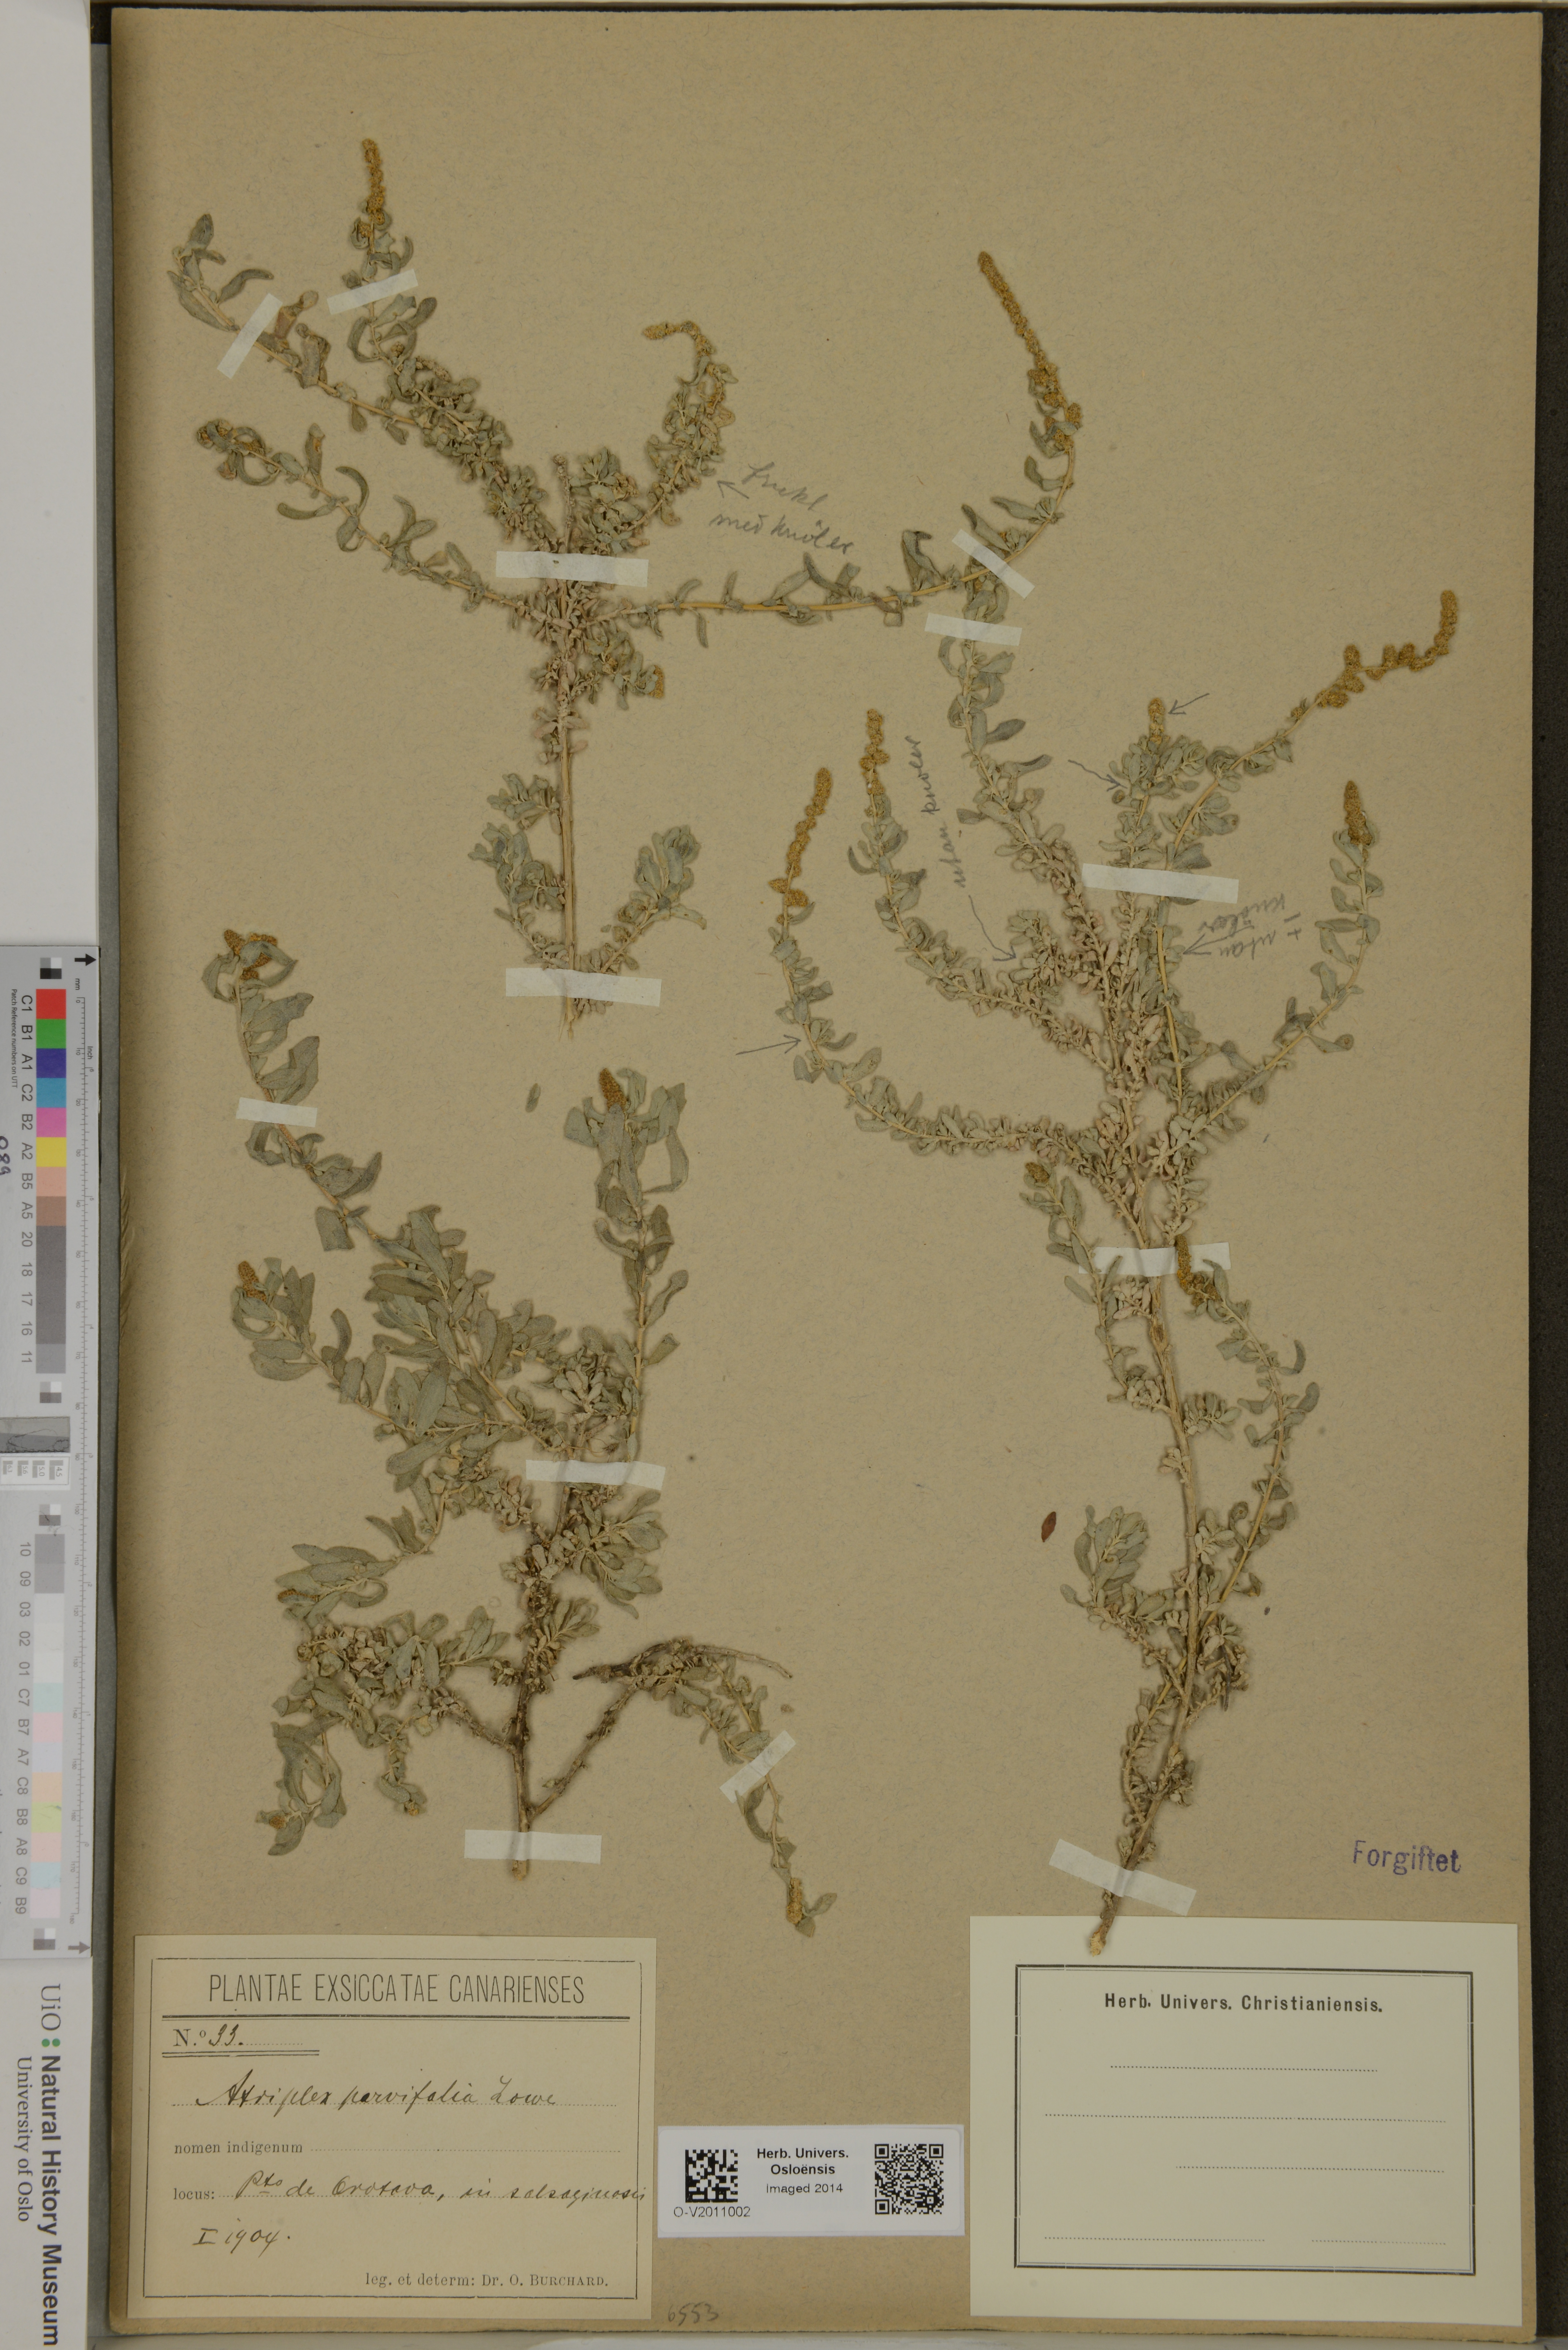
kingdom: Plantae
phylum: Tracheophyta
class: Magnoliopsida
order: Caryophyllales
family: Amaranthaceae
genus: Atriplex
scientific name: Atriplex glauca
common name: Waxy saltbush
